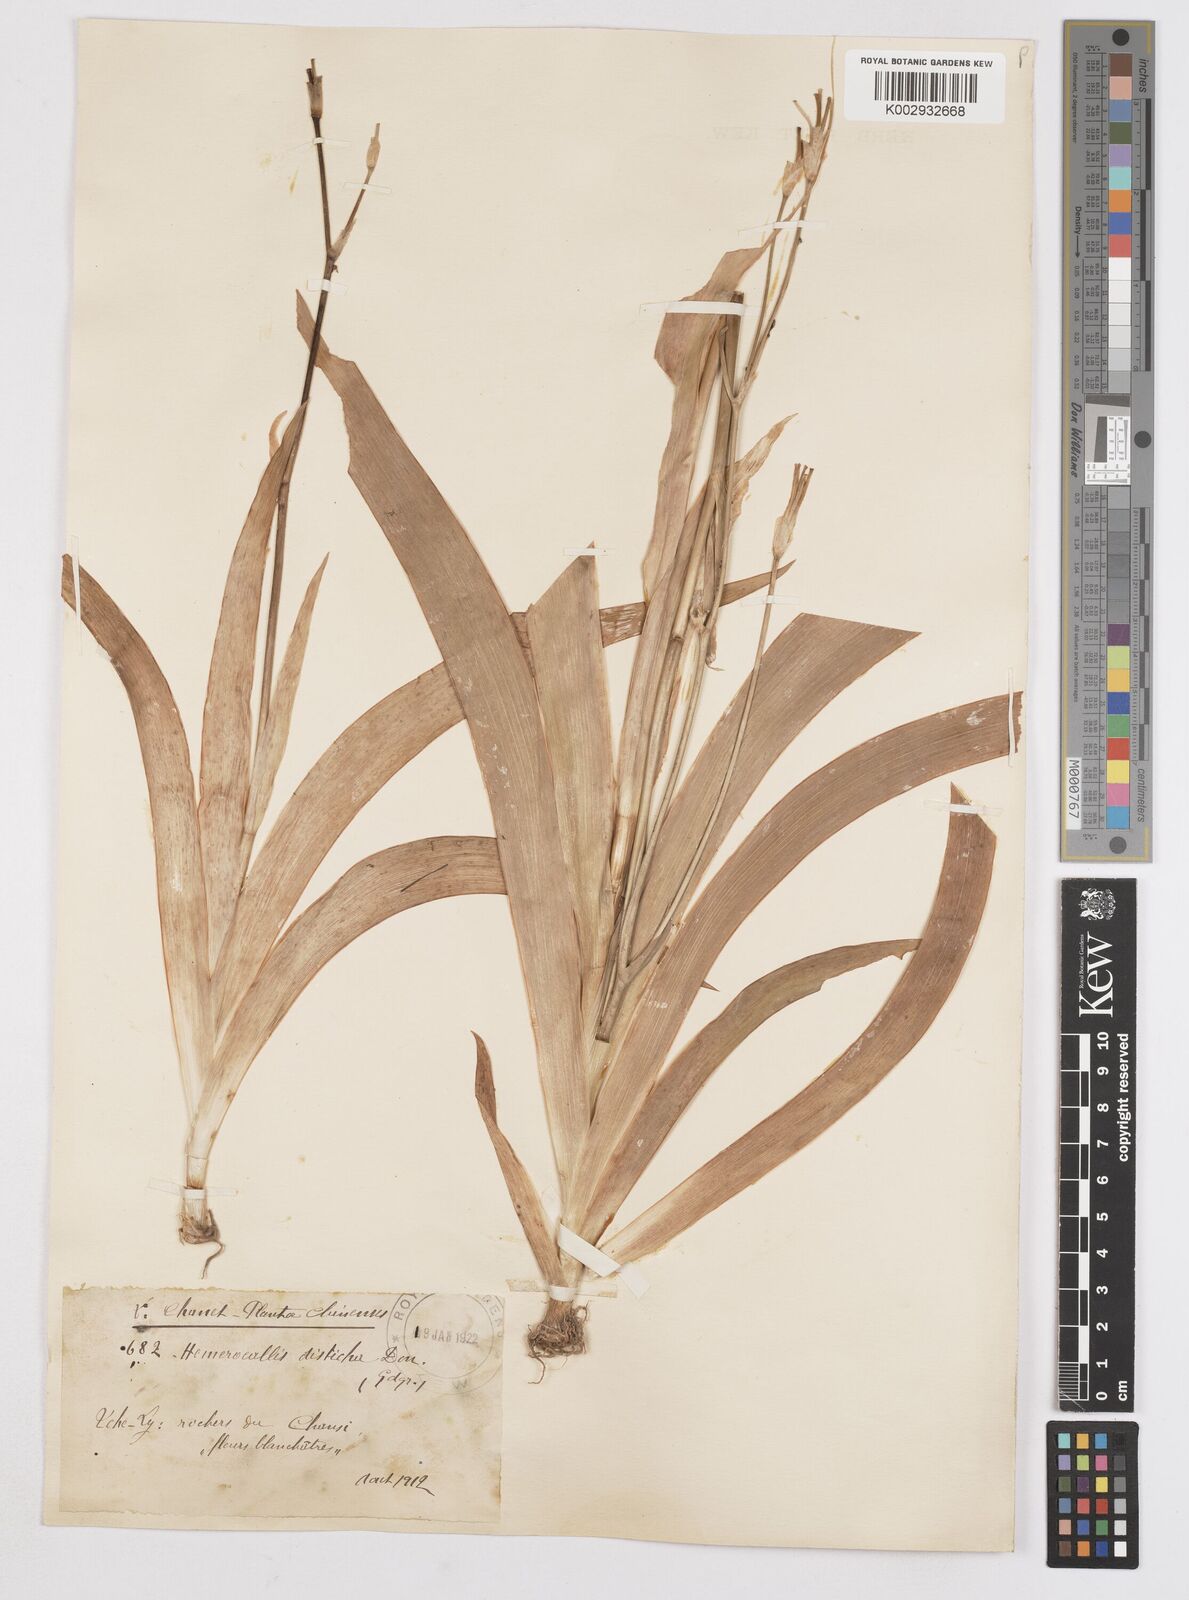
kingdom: Plantae
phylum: Tracheophyta
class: Liliopsida
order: Asparagales
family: Iridaceae
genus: Iris
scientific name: Iris
